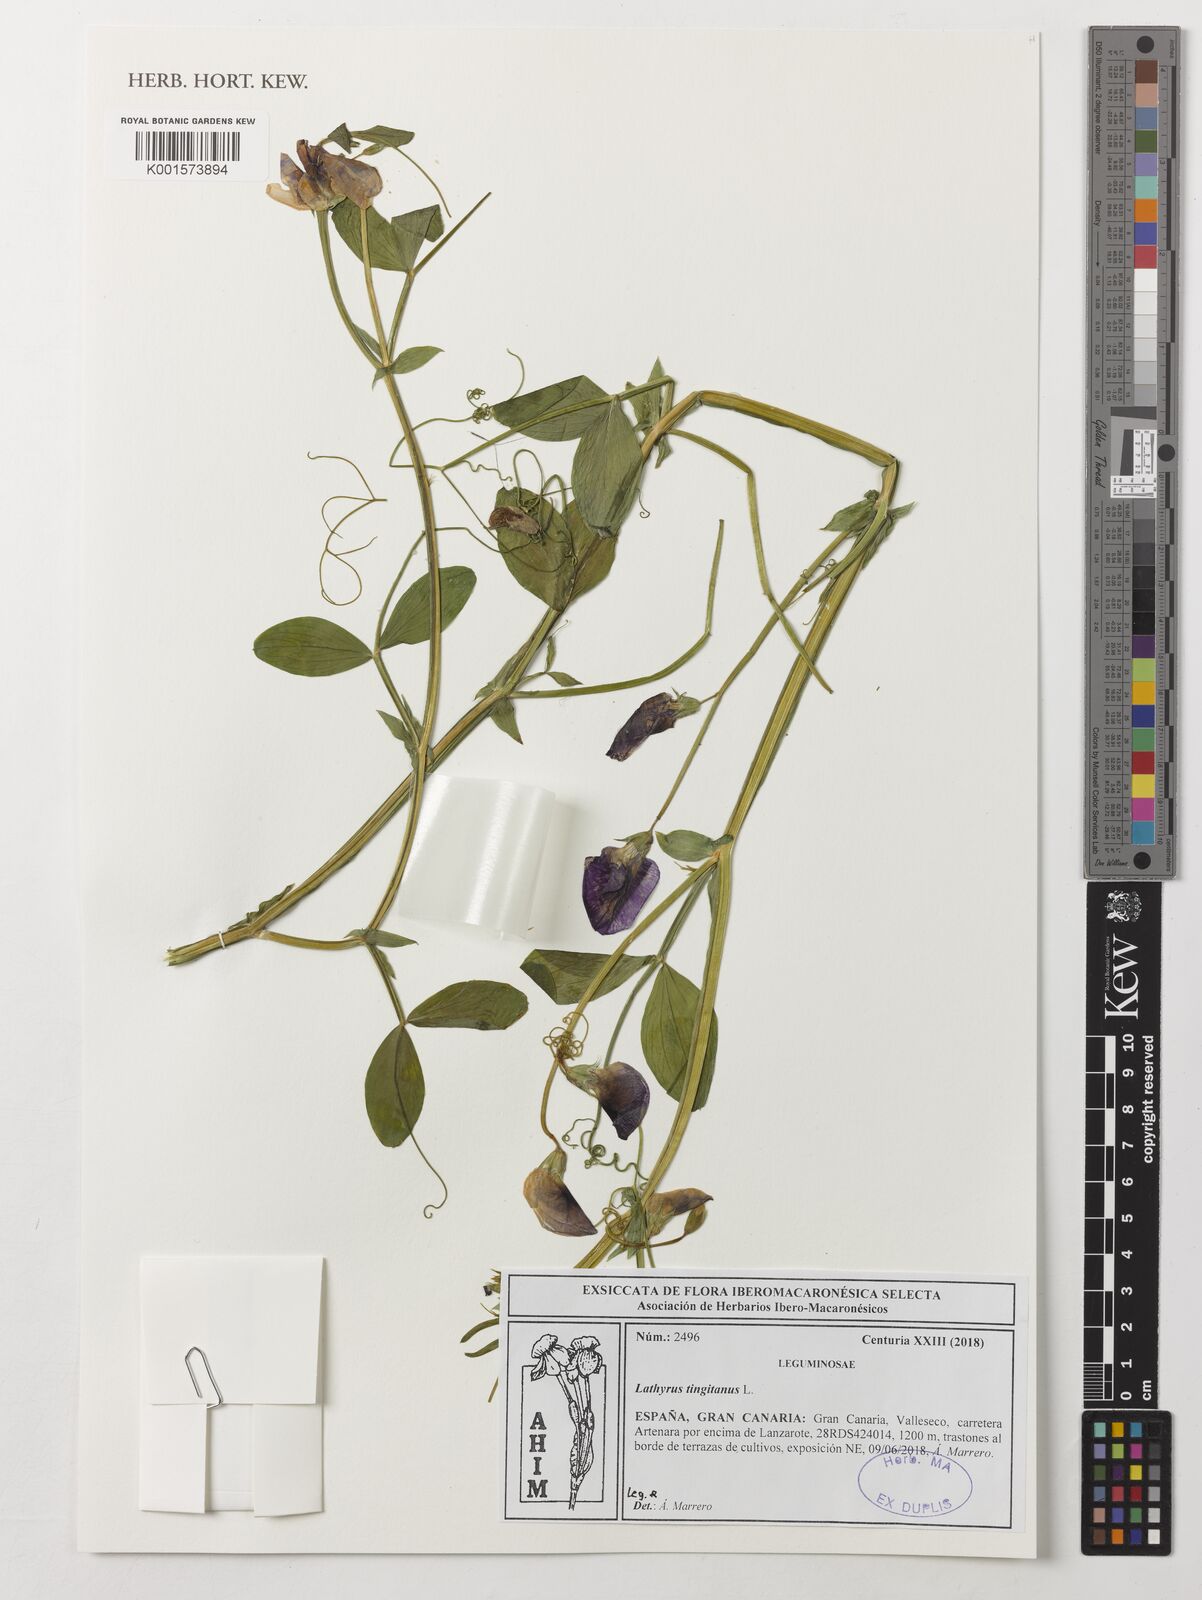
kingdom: Plantae
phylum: Tracheophyta
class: Magnoliopsida
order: Fabales
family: Fabaceae
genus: Lathyrus
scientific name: Lathyrus tingitanus
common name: Tangier pea
